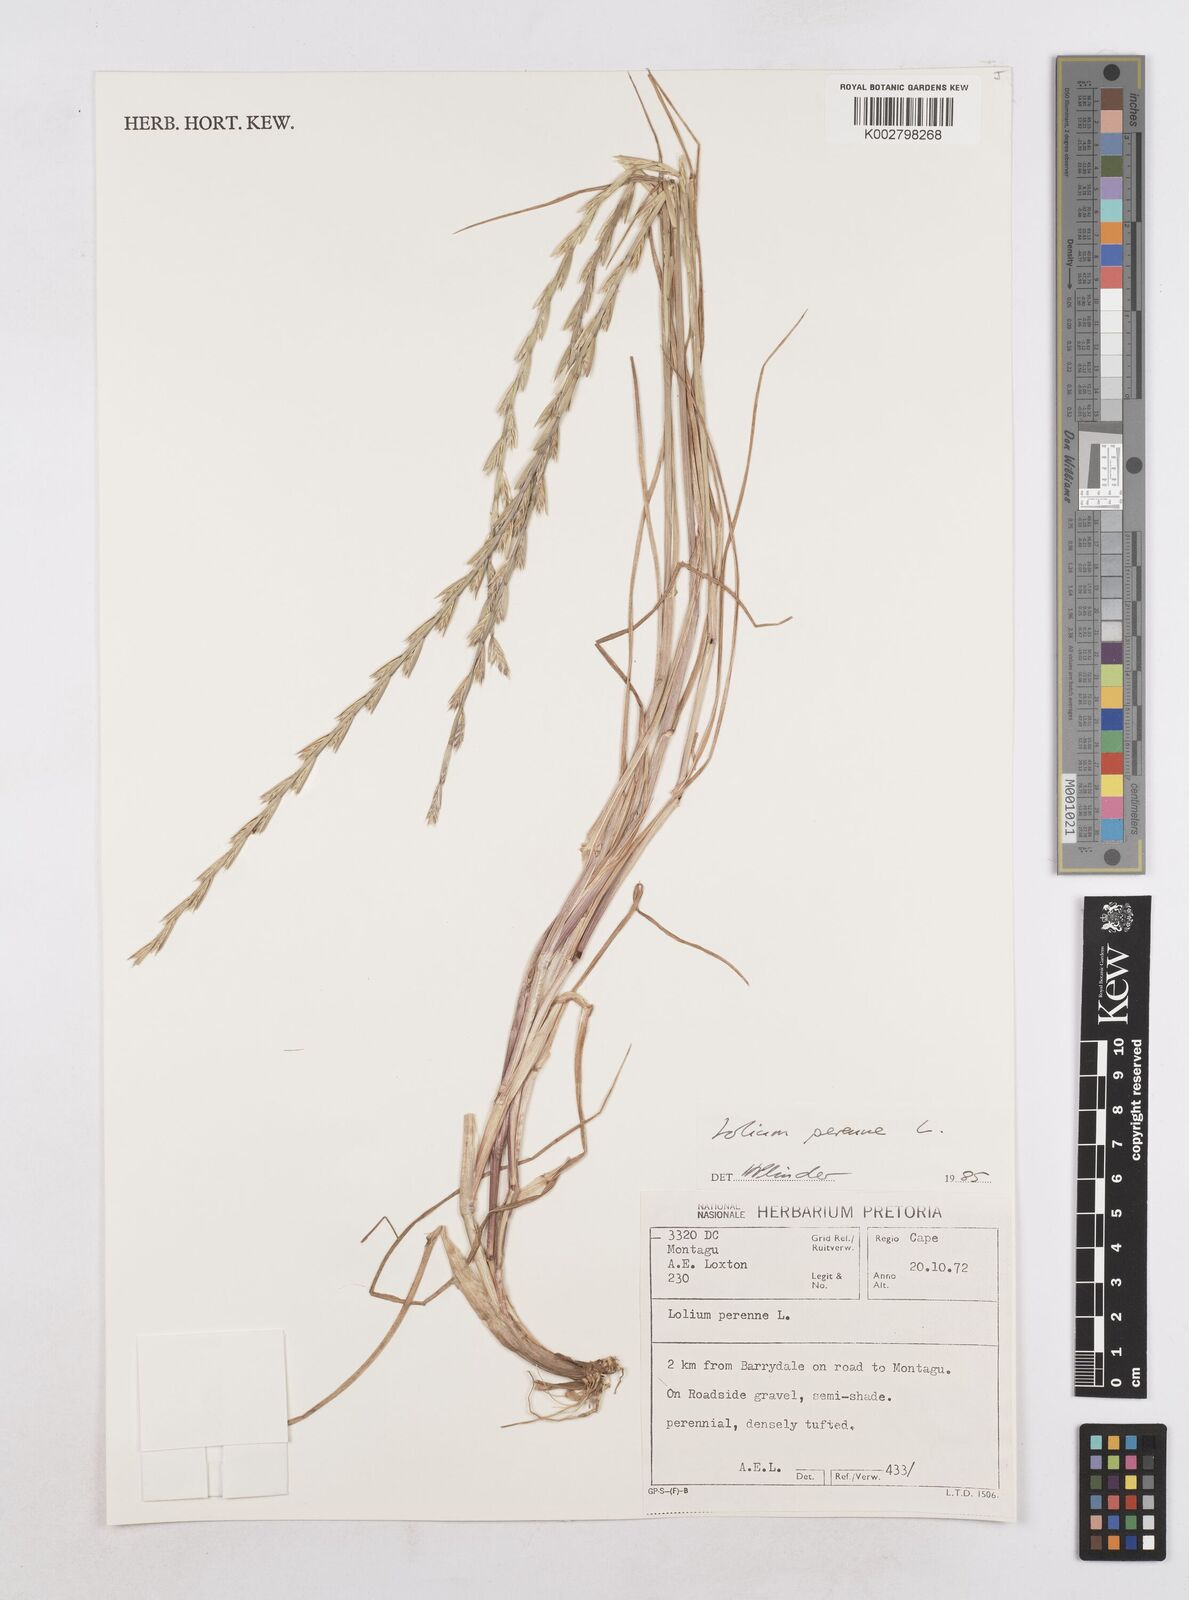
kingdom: Plantae
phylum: Tracheophyta
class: Liliopsida
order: Poales
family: Poaceae
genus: Lolium
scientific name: Lolium perenne
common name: Perennial ryegrass
